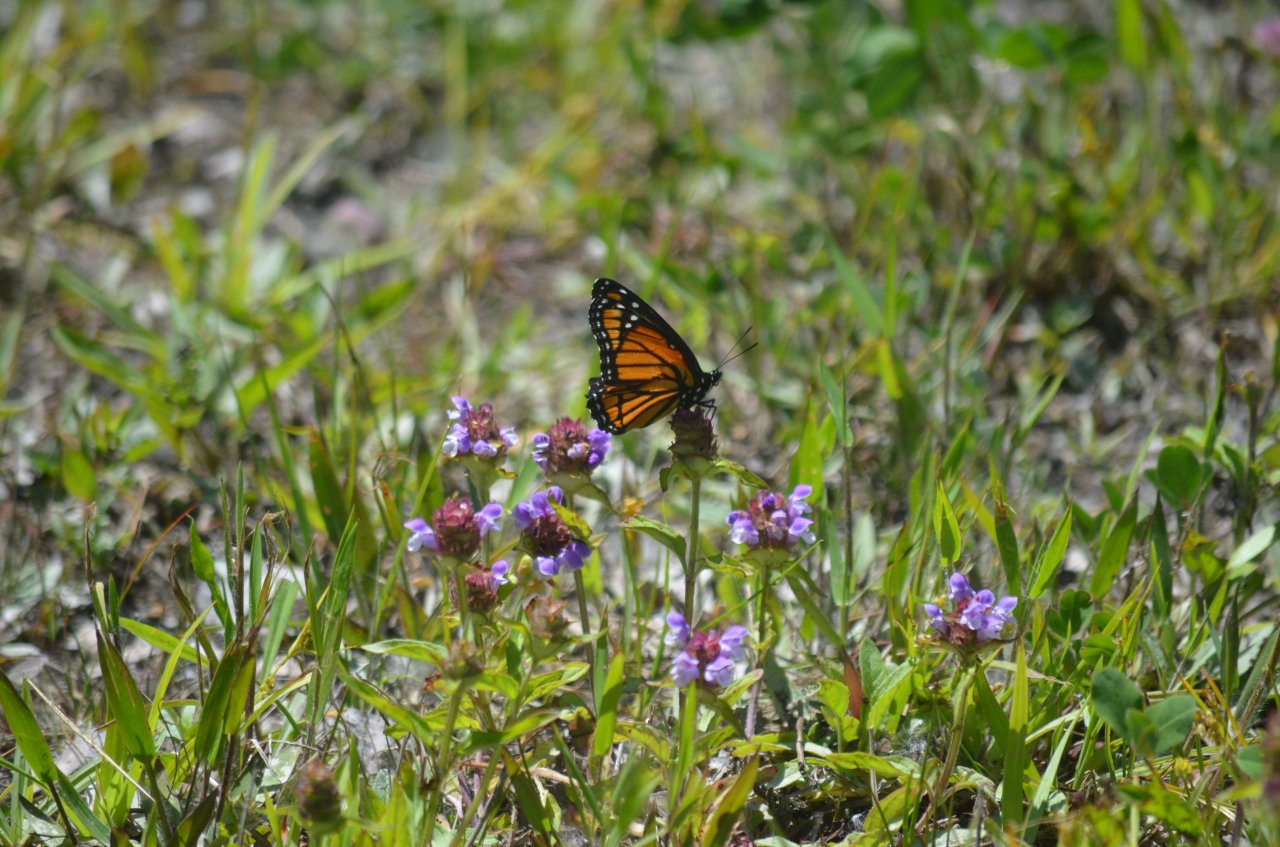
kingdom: Animalia
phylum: Arthropoda
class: Insecta
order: Lepidoptera
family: Nymphalidae
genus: Limenitis
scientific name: Limenitis archippus
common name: Viceroy
